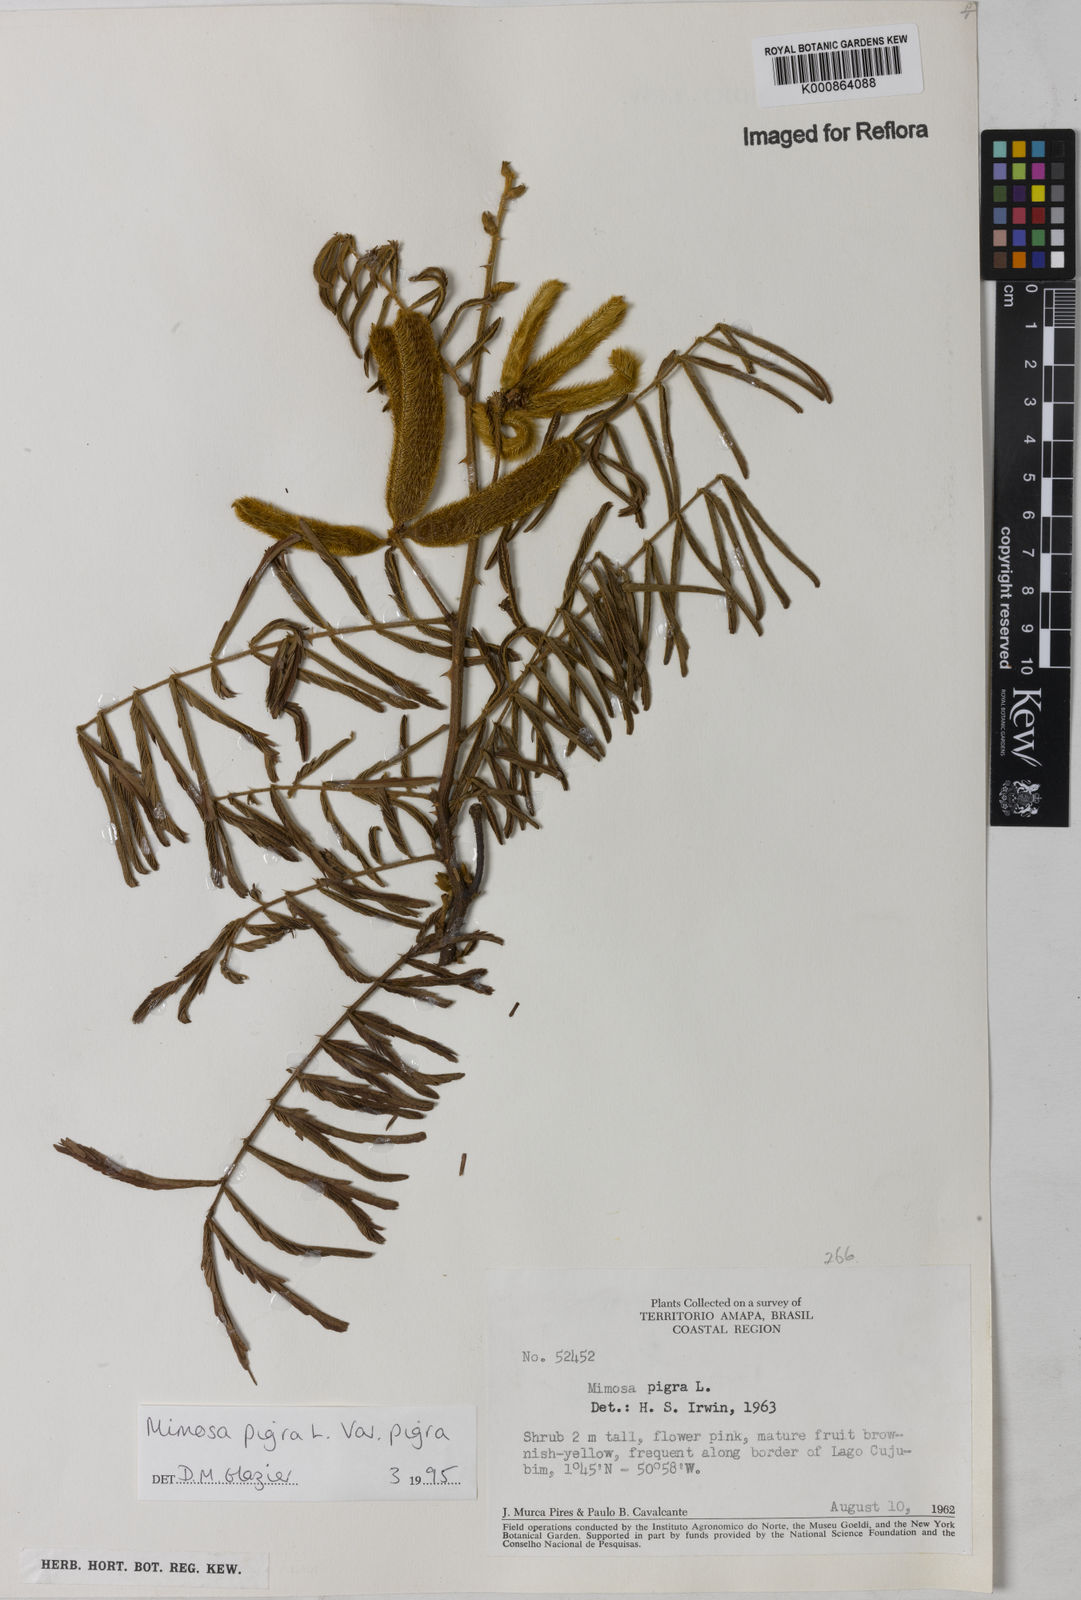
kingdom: Plantae
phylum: Tracheophyta
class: Magnoliopsida
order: Fabales
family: Fabaceae
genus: Mimosa
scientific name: Mimosa pigra
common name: Black mimosa
